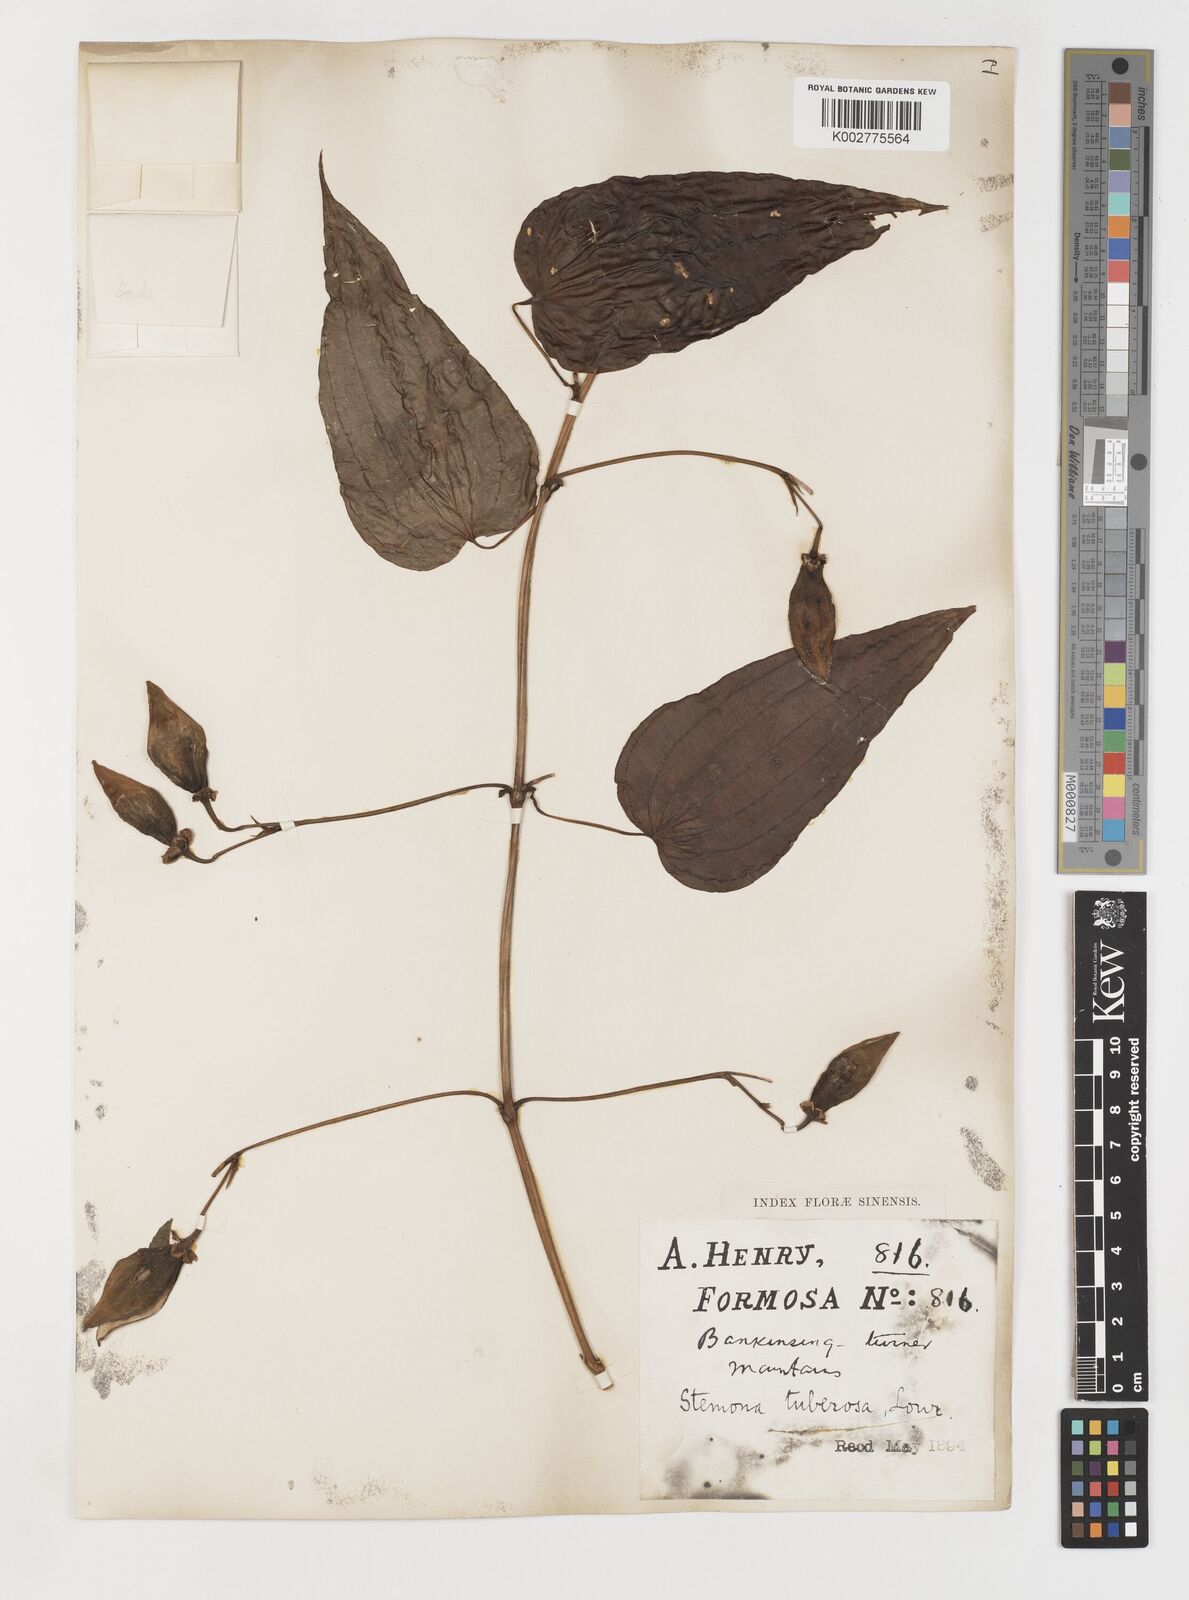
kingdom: Plantae
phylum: Tracheophyta
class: Liliopsida
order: Pandanales
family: Stemonaceae
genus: Stemona
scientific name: Stemona tuberosa
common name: Stemona
